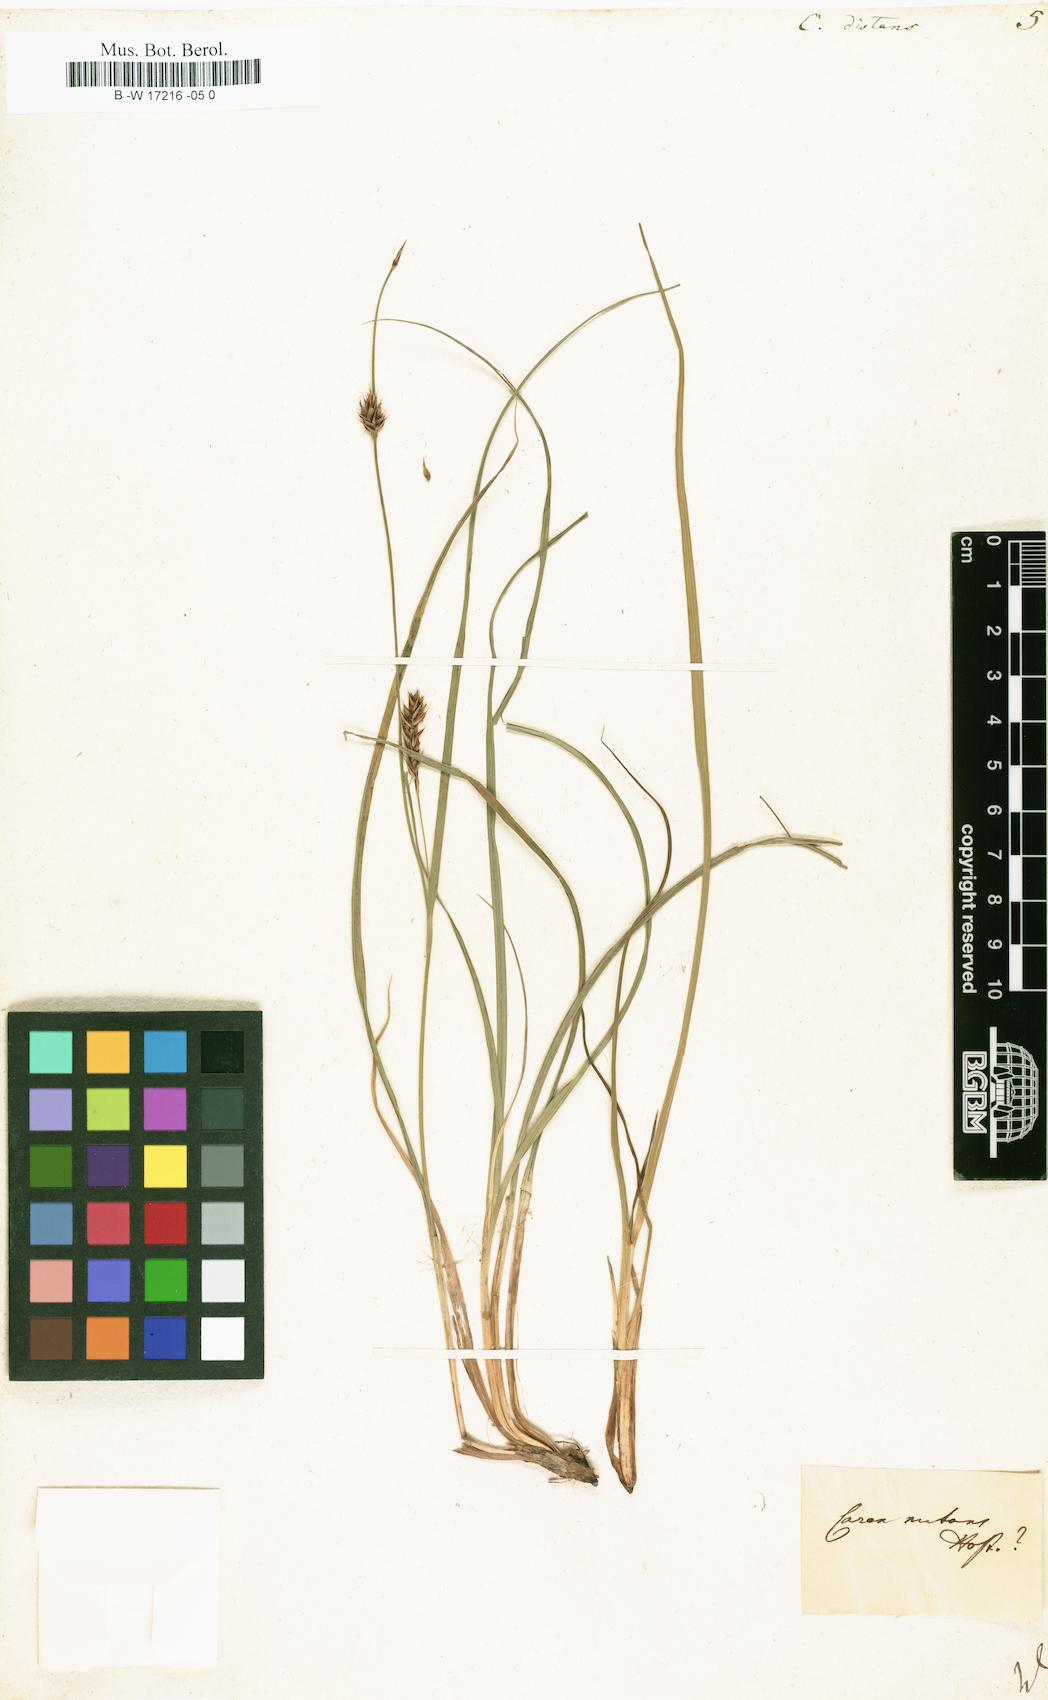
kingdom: Plantae
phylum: Tracheophyta
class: Liliopsida
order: Poales
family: Cyperaceae
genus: Carex
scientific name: Carex distans
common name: Distant sedge
